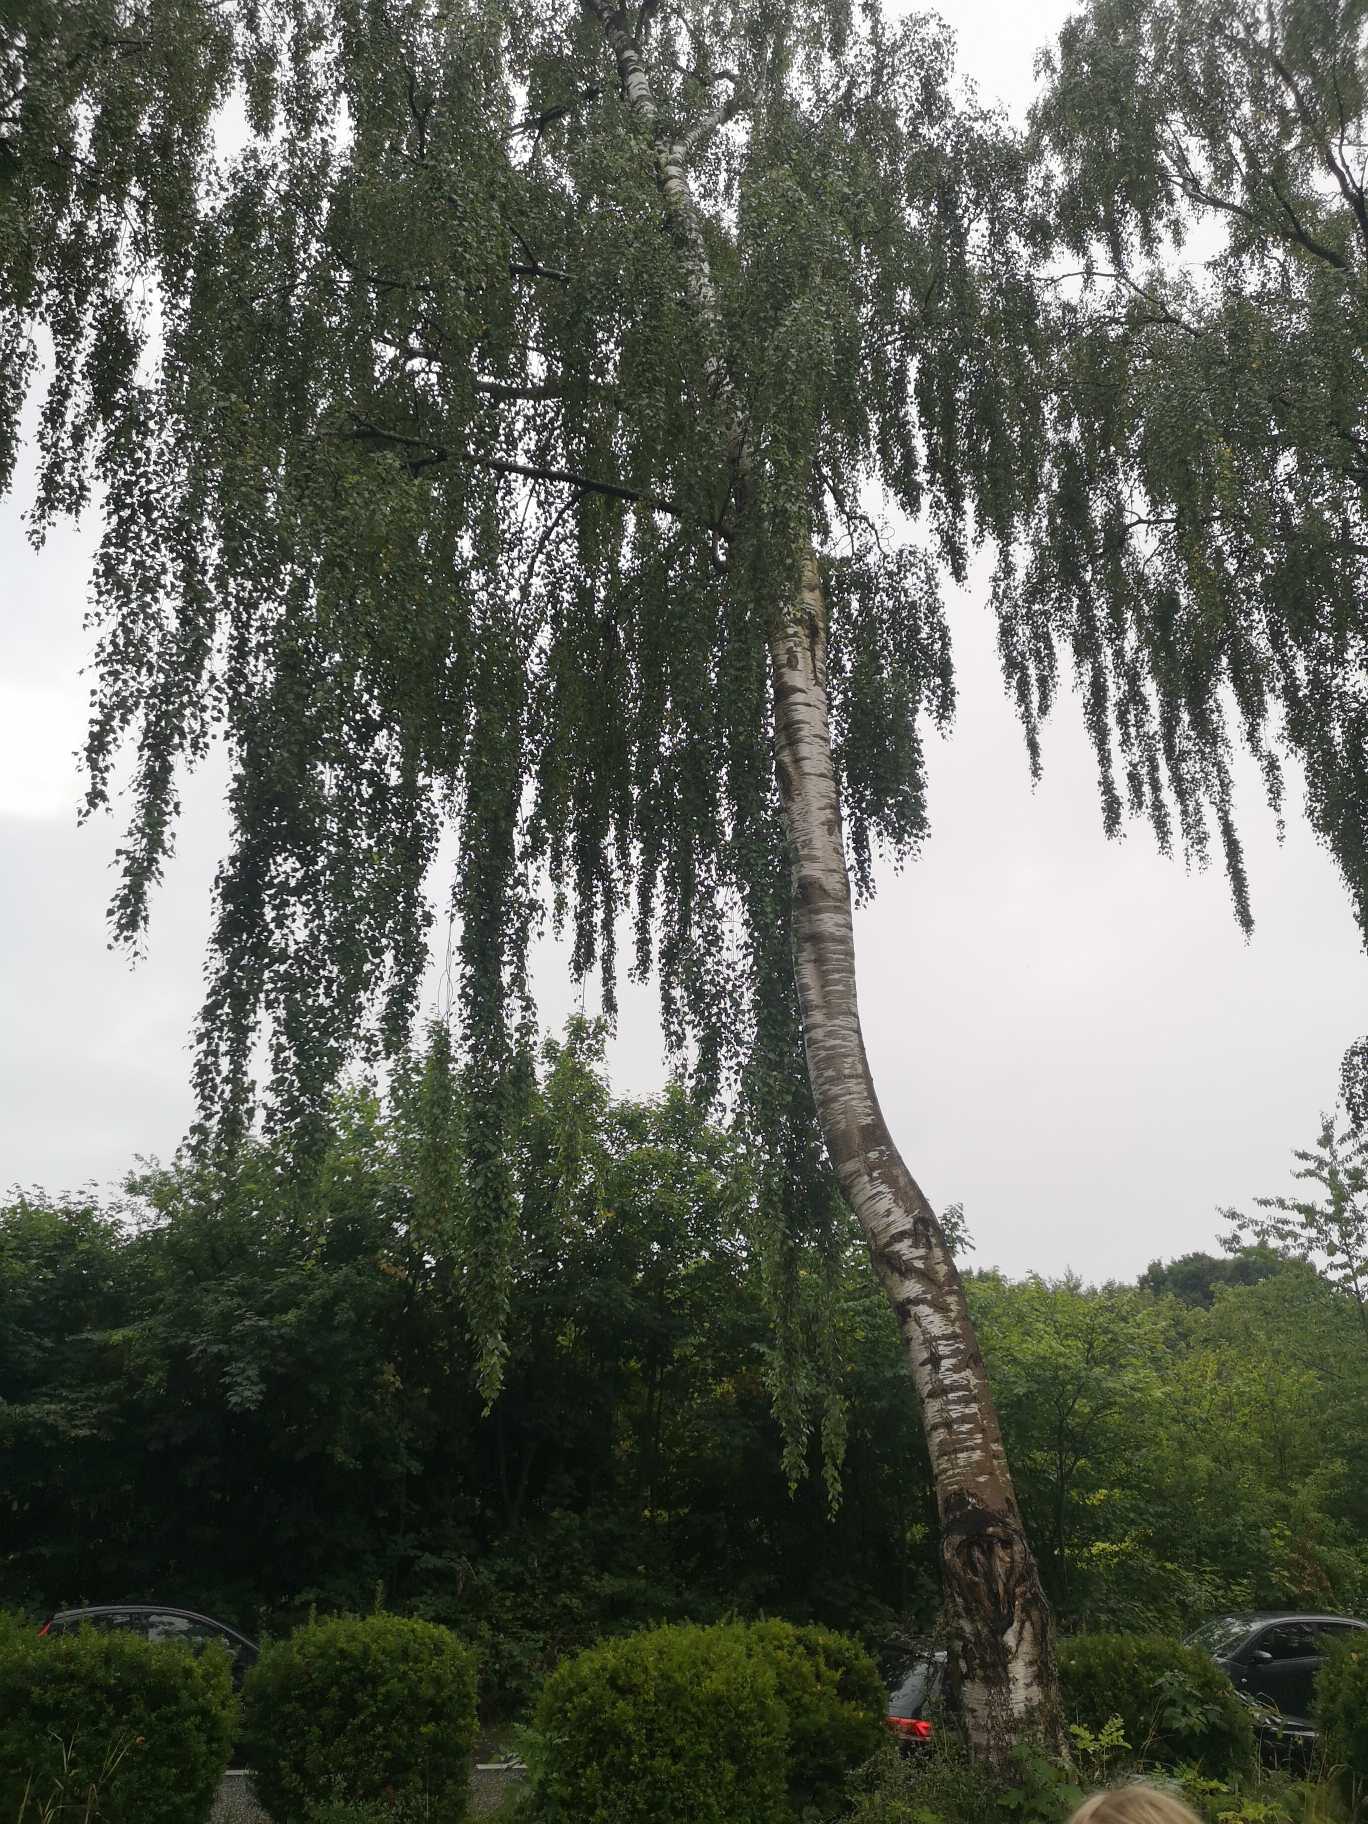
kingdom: Plantae
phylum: Tracheophyta
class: Magnoliopsida
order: Fagales
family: Betulaceae
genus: Betula
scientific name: Betula pendula
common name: Vorte-birk
